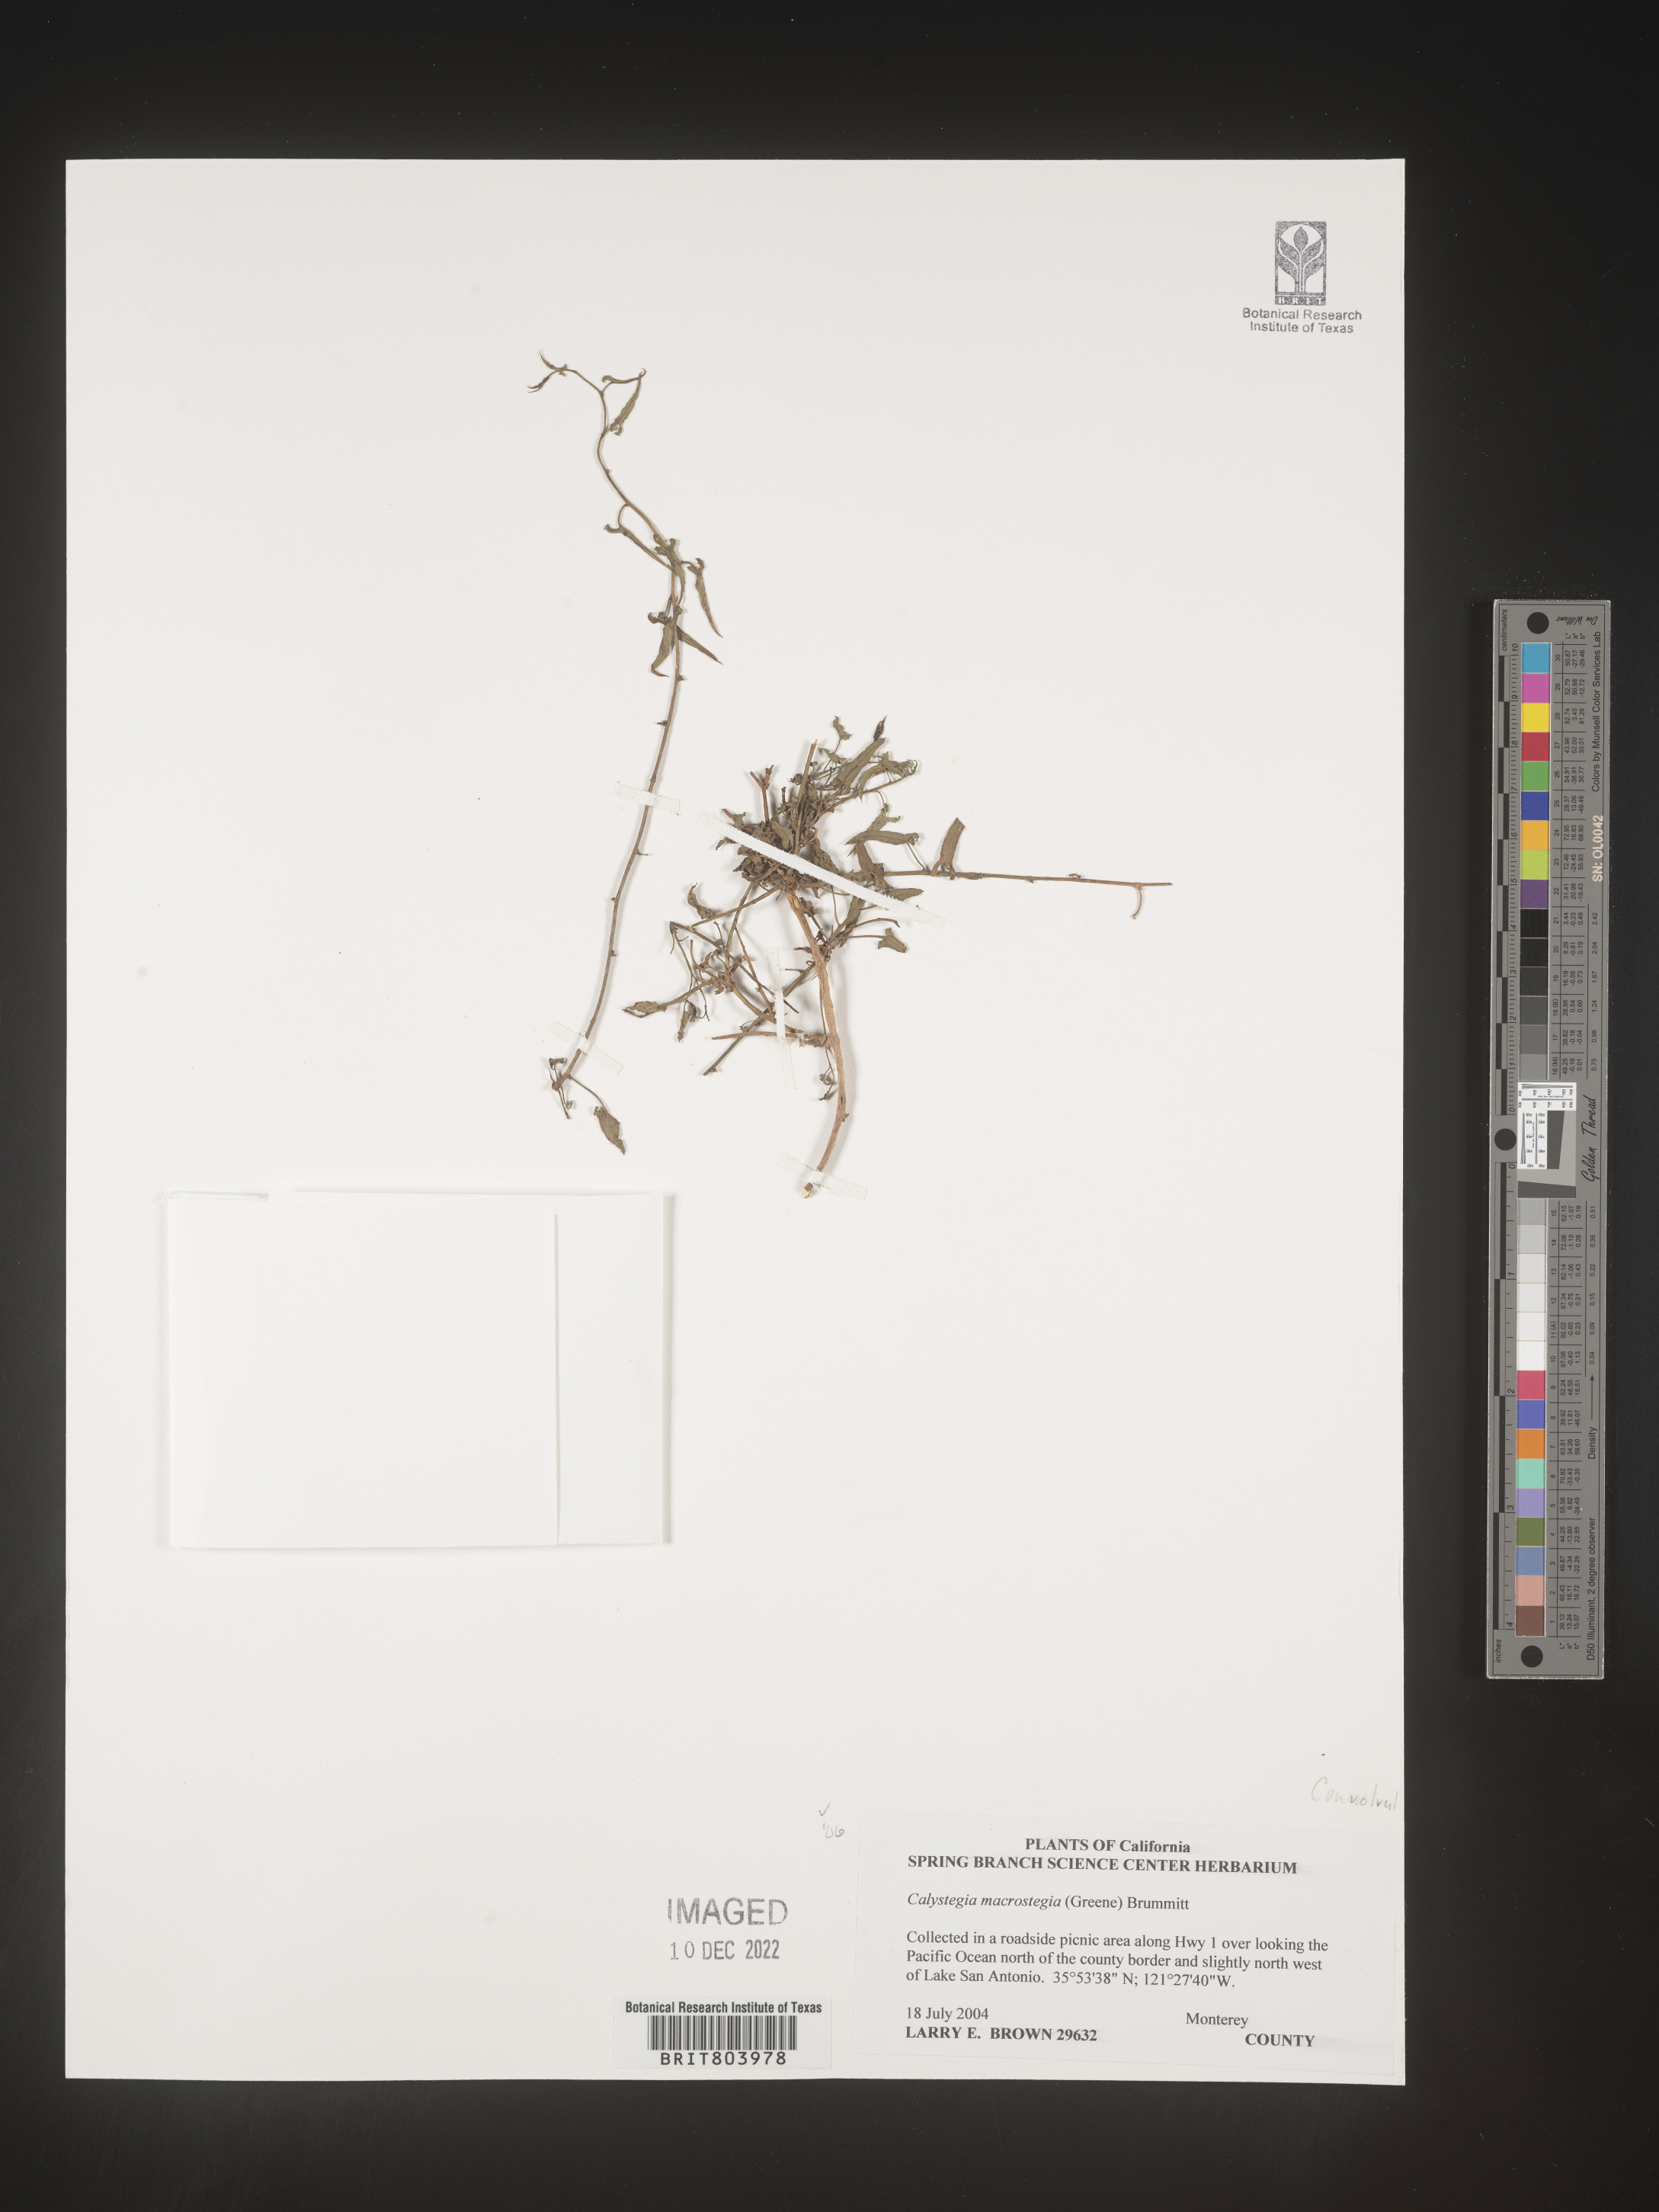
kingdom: Plantae
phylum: Tracheophyta
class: Magnoliopsida
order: Solanales
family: Convolvulaceae
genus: Calystegia
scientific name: Calystegia
